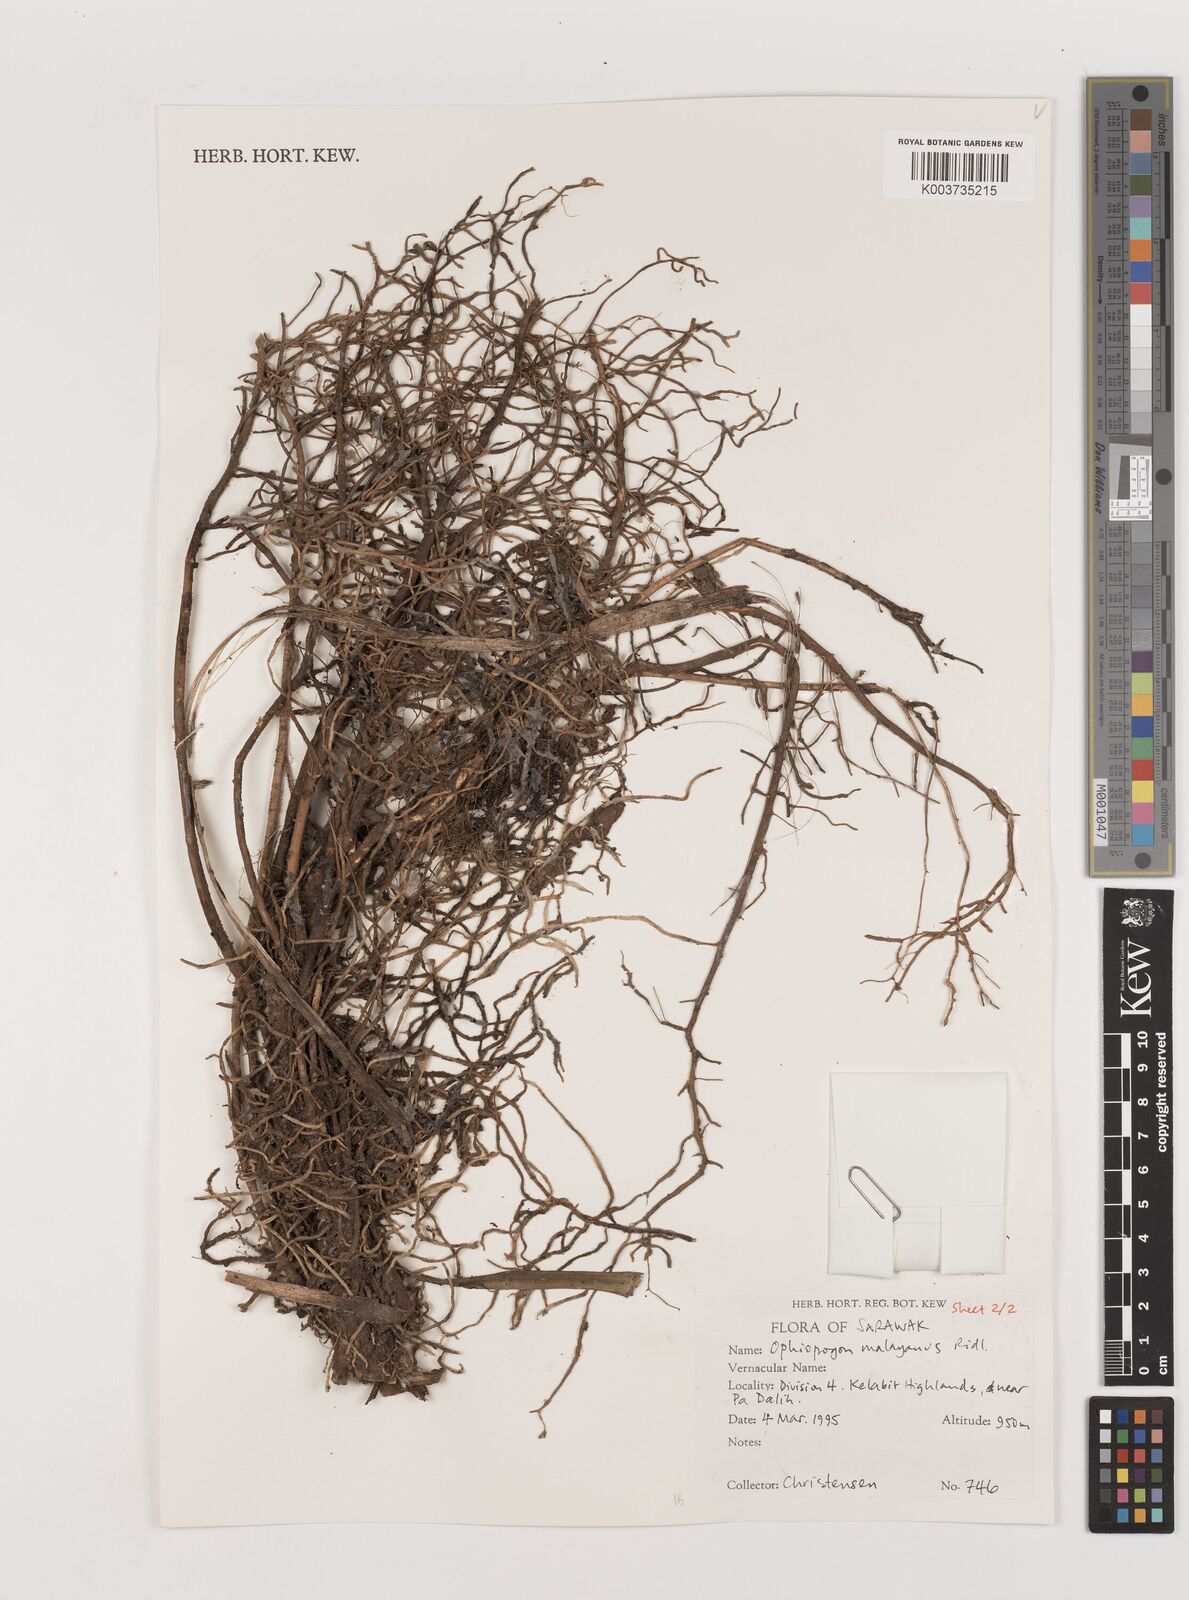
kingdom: Plantae
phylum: Tracheophyta
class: Liliopsida
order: Asparagales
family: Asparagaceae
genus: Ophiopogon
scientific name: Ophiopogon caulescens
